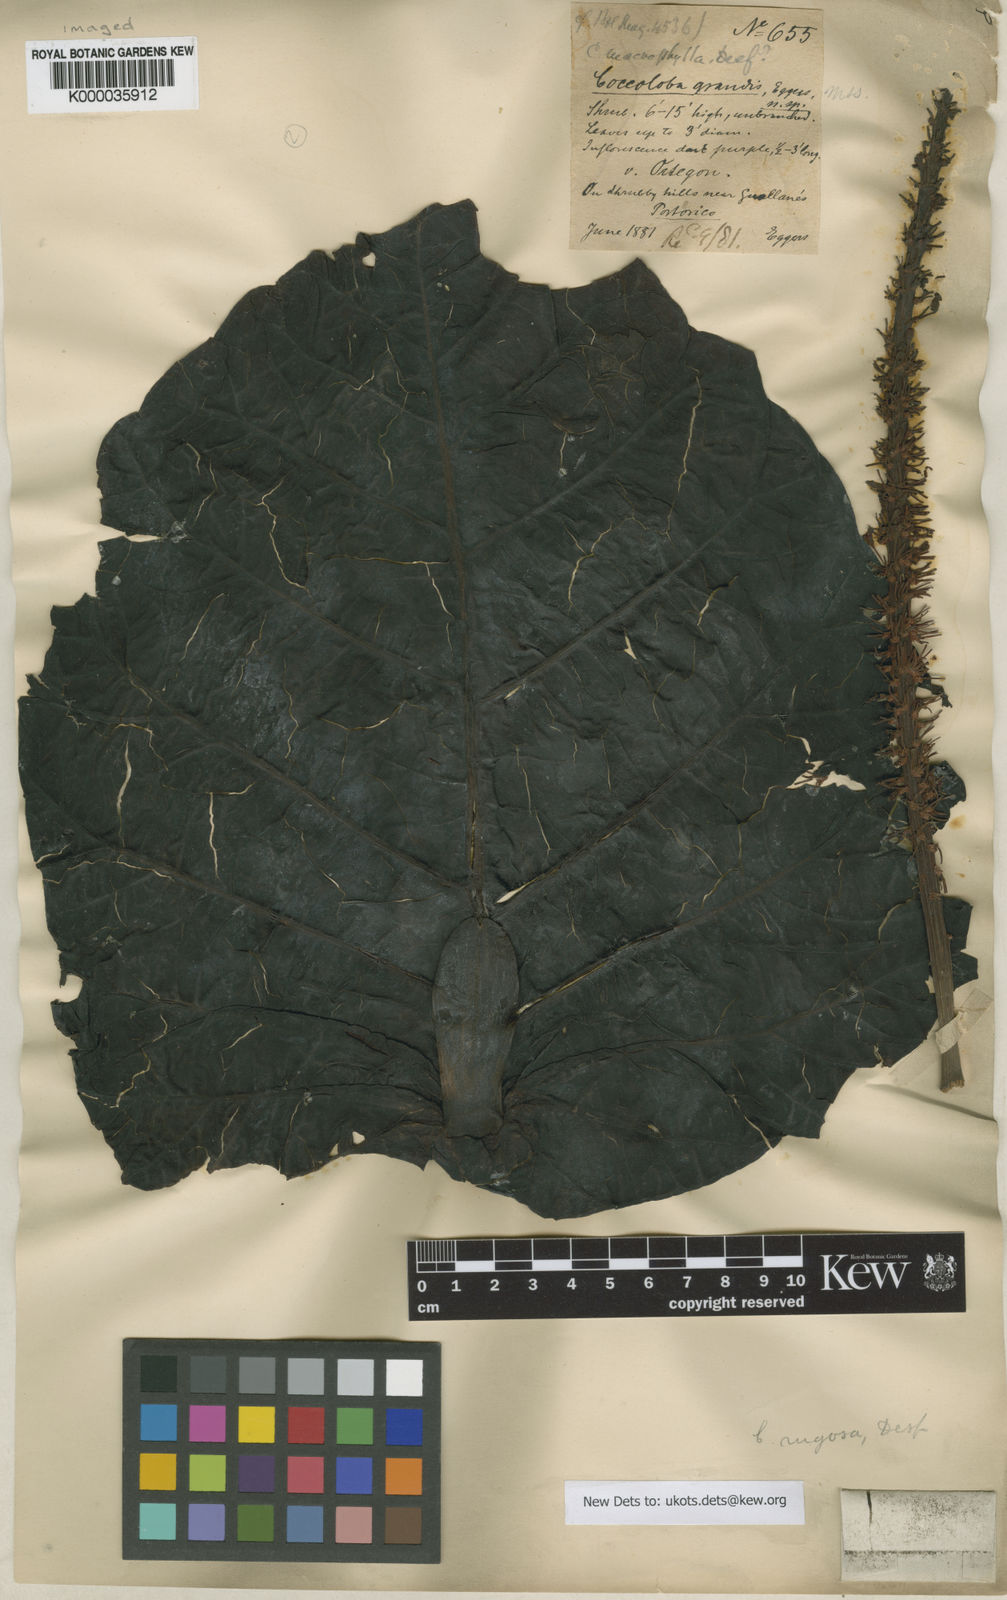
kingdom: Plantae
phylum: Tracheophyta
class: Magnoliopsida
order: Caryophyllales
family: Polygonaceae
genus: Coccoloba
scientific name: Coccoloba rugosa
